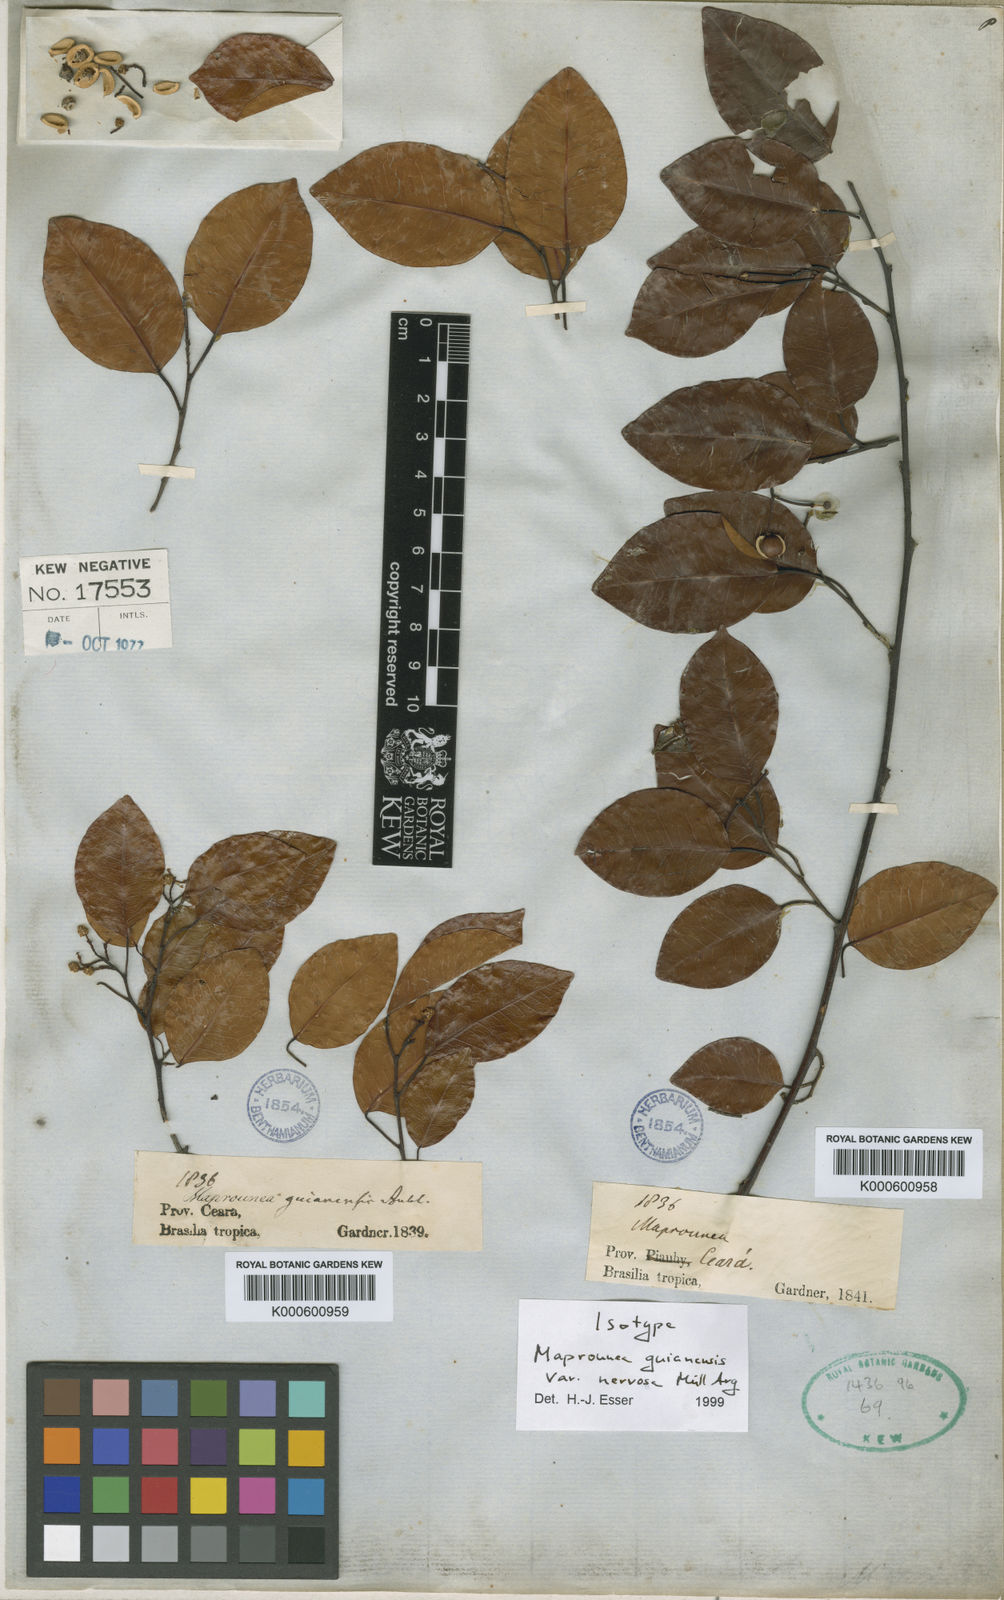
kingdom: Plantae
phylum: Tracheophyta
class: Magnoliopsida
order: Malpighiales
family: Euphorbiaceae
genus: Maprounea
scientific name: Maprounea guianensis
